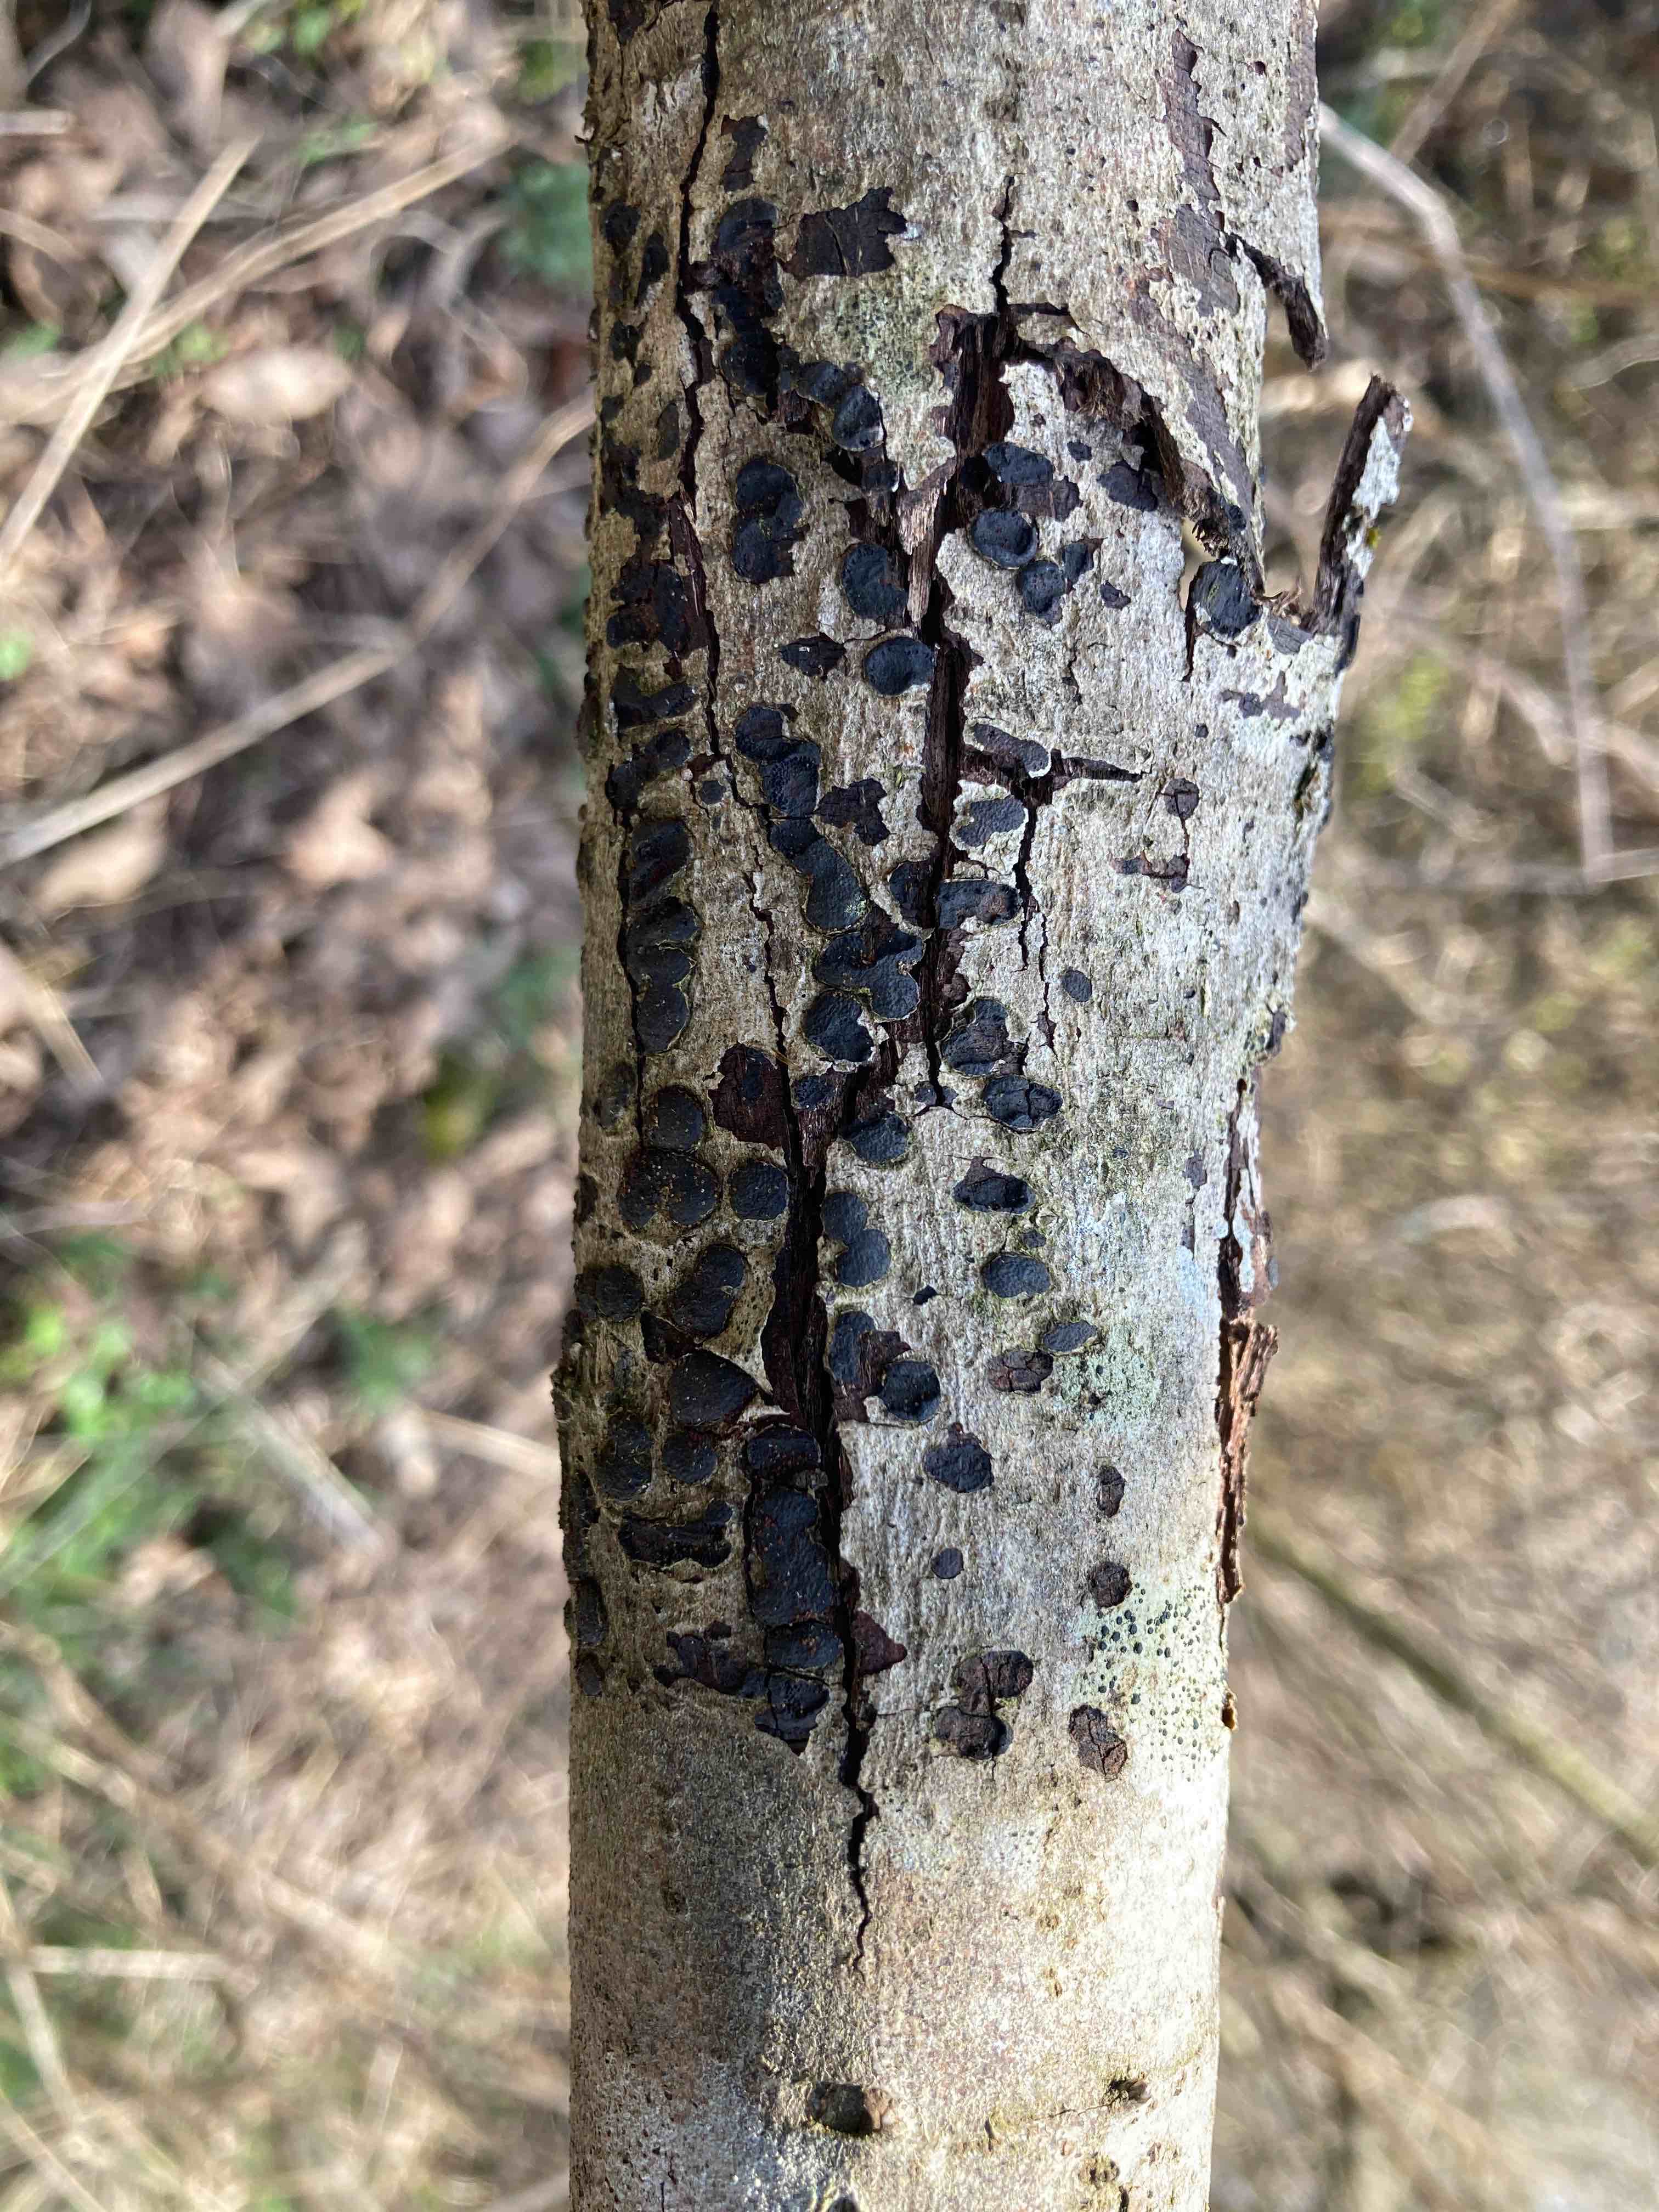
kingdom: Fungi
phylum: Ascomycota
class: Sordariomycetes
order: Xylariales
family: Diatrypaceae
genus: Diatrype
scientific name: Diatrype bullata
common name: pile-kulskorpe
